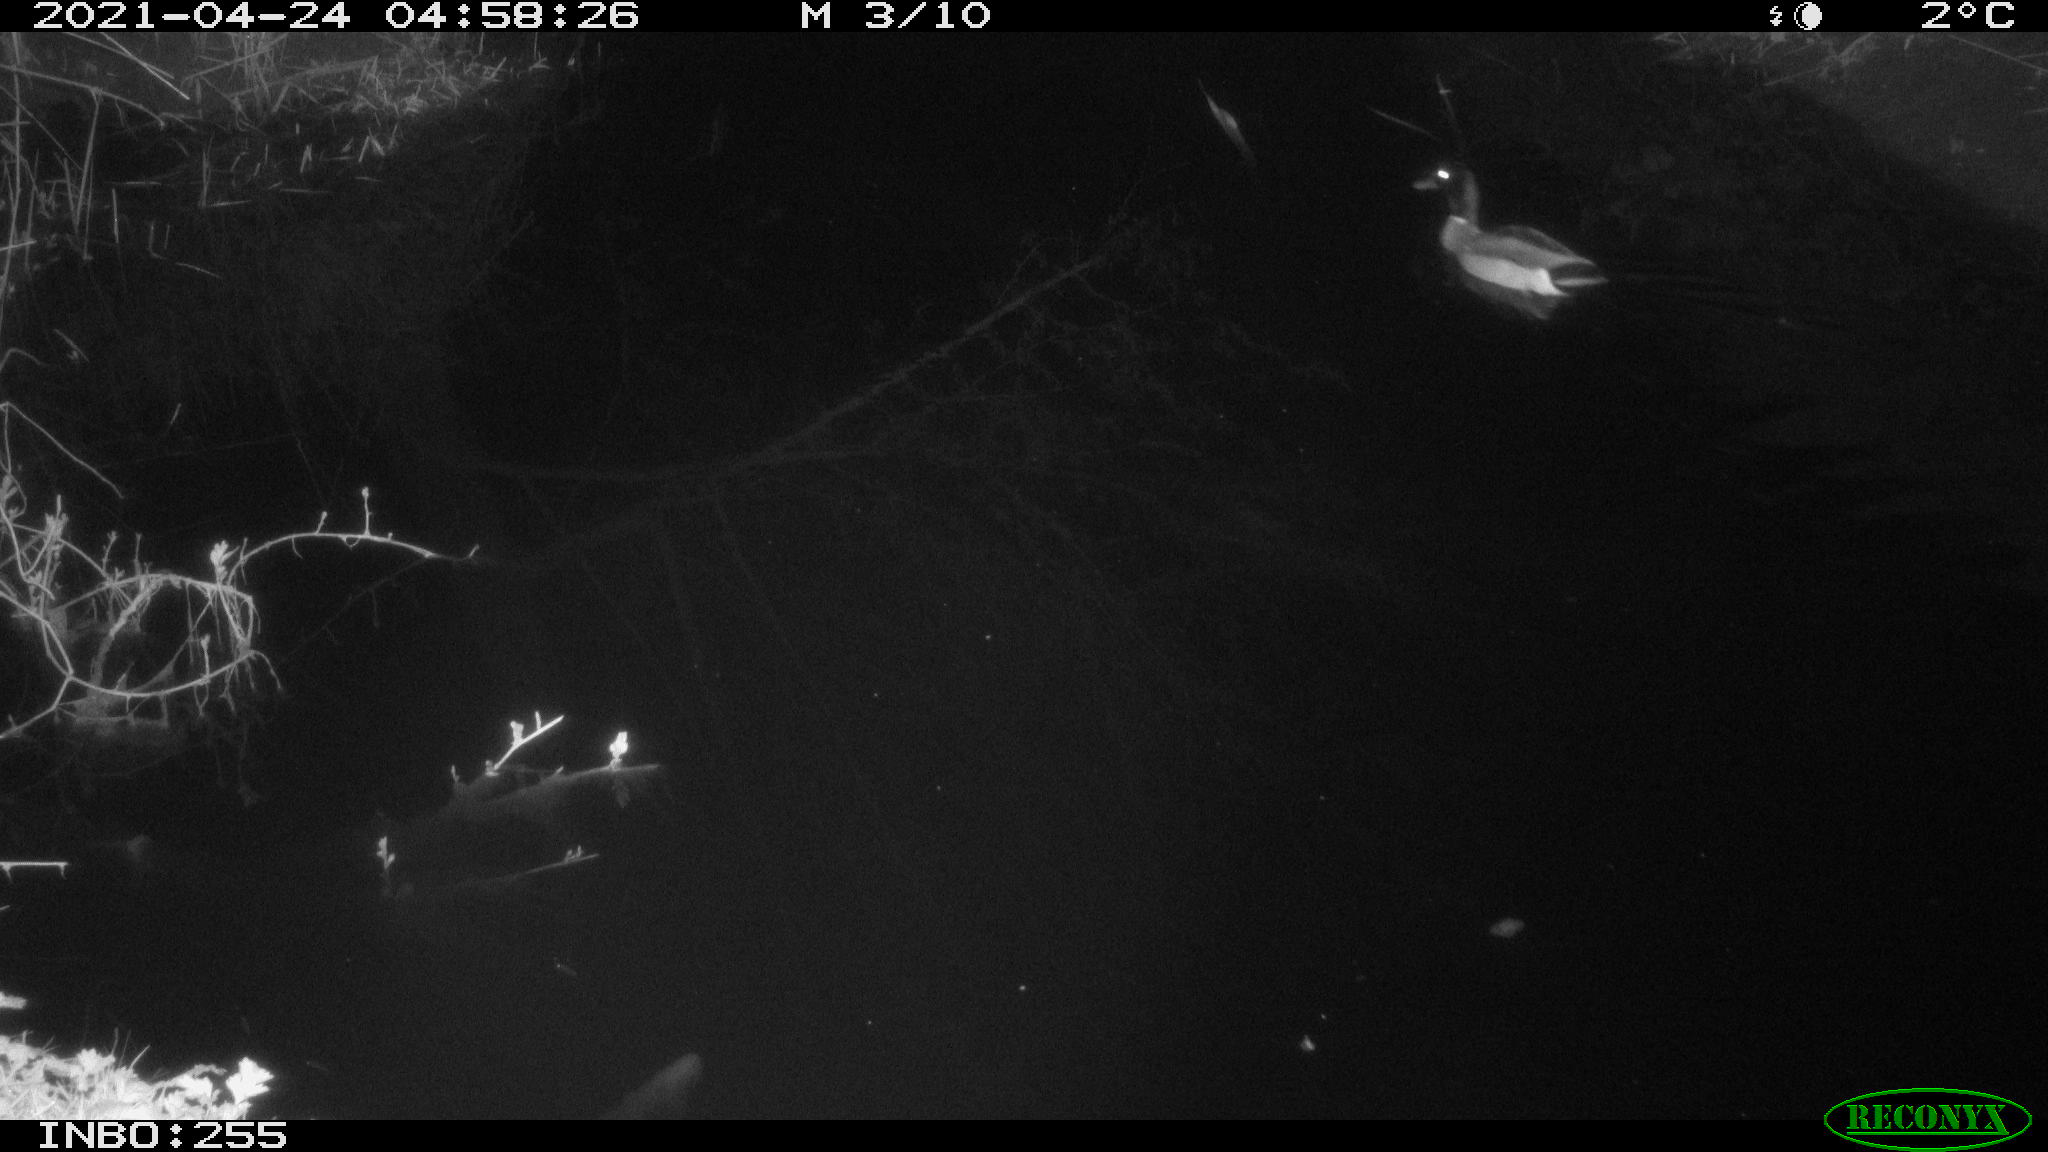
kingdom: Animalia
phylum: Chordata
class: Aves
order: Anseriformes
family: Anatidae
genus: Anas
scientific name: Anas platyrhynchos
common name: Mallard
